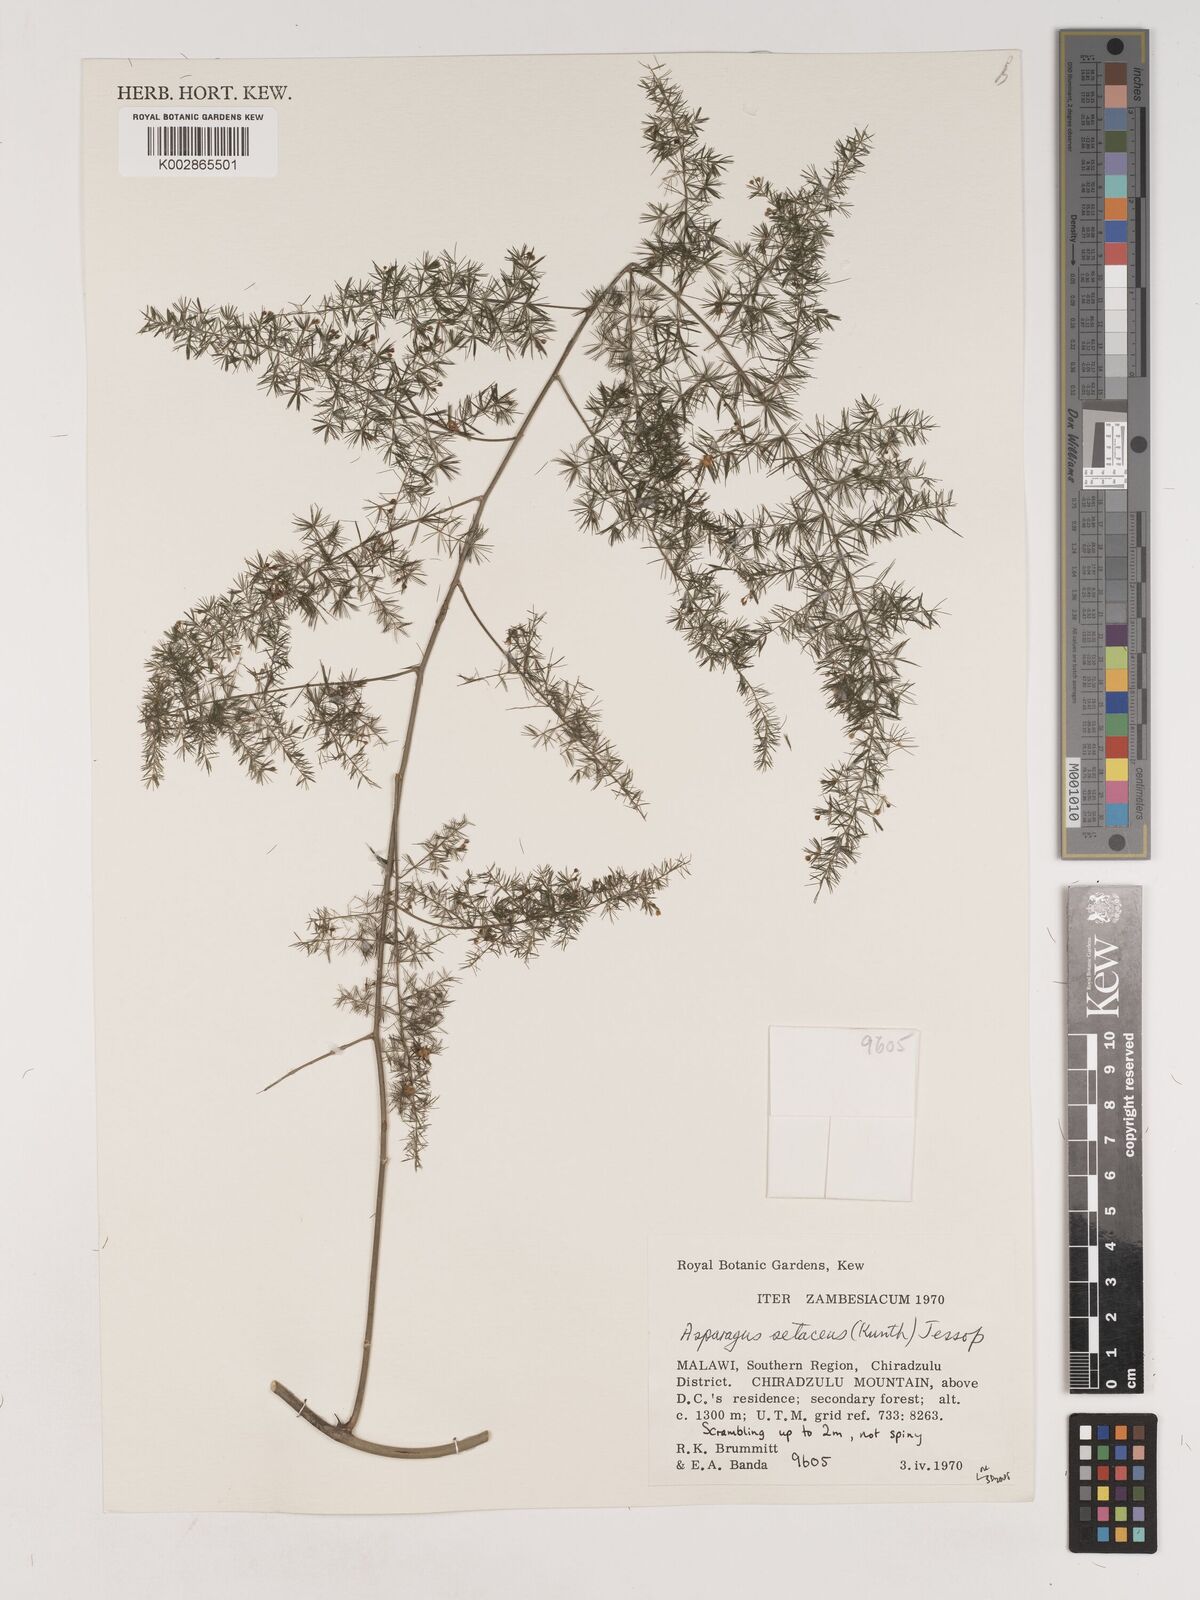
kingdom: Plantae
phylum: Tracheophyta
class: Liliopsida
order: Asparagales
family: Asparagaceae
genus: Asparagus
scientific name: Asparagus setaceus
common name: Common asparagus fern
